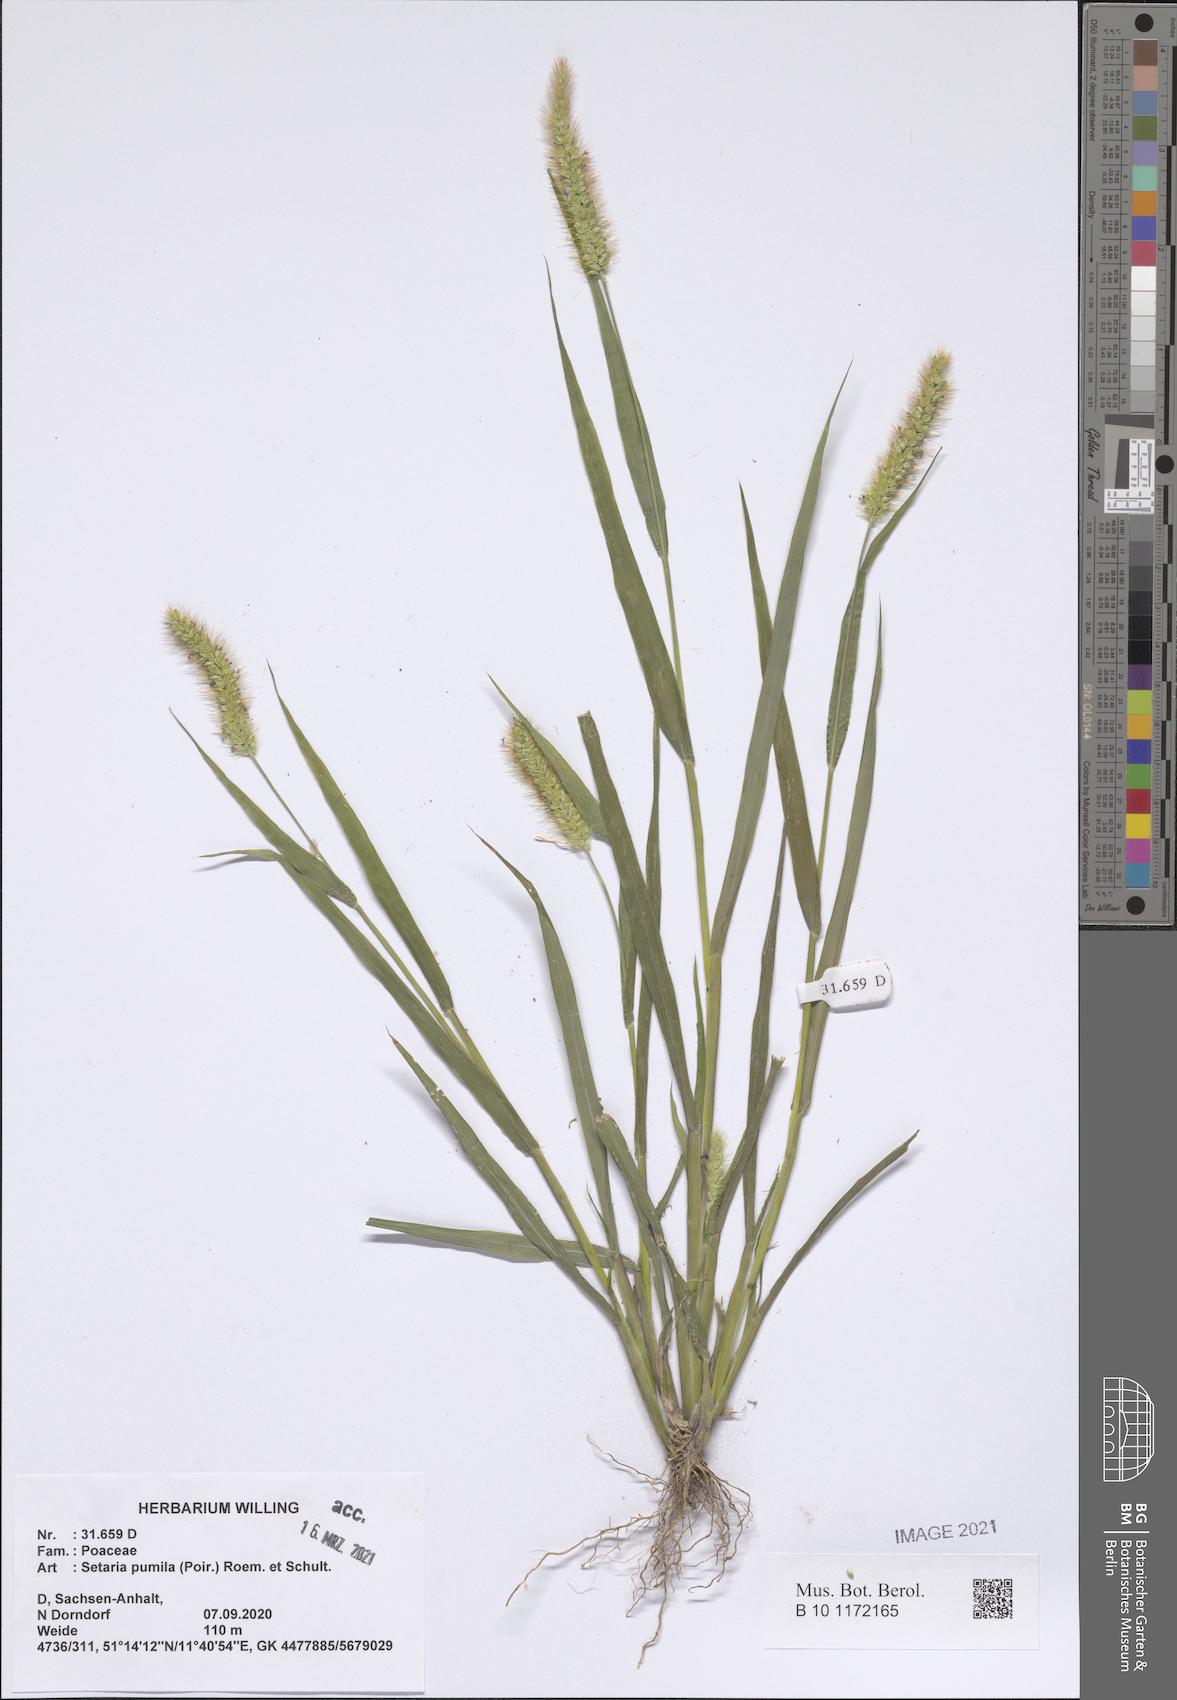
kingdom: Plantae
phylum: Tracheophyta
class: Liliopsida
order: Poales
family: Poaceae
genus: Setaria
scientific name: Setaria pumila
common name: Yellow bristle-grass
